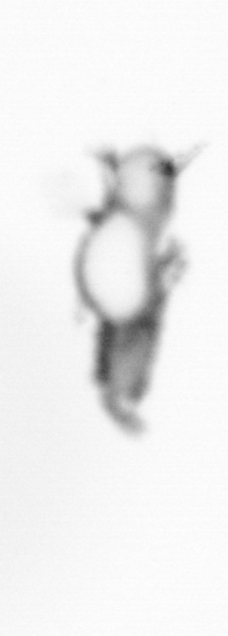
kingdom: Animalia
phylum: Annelida
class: Polychaeta
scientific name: Polychaeta
